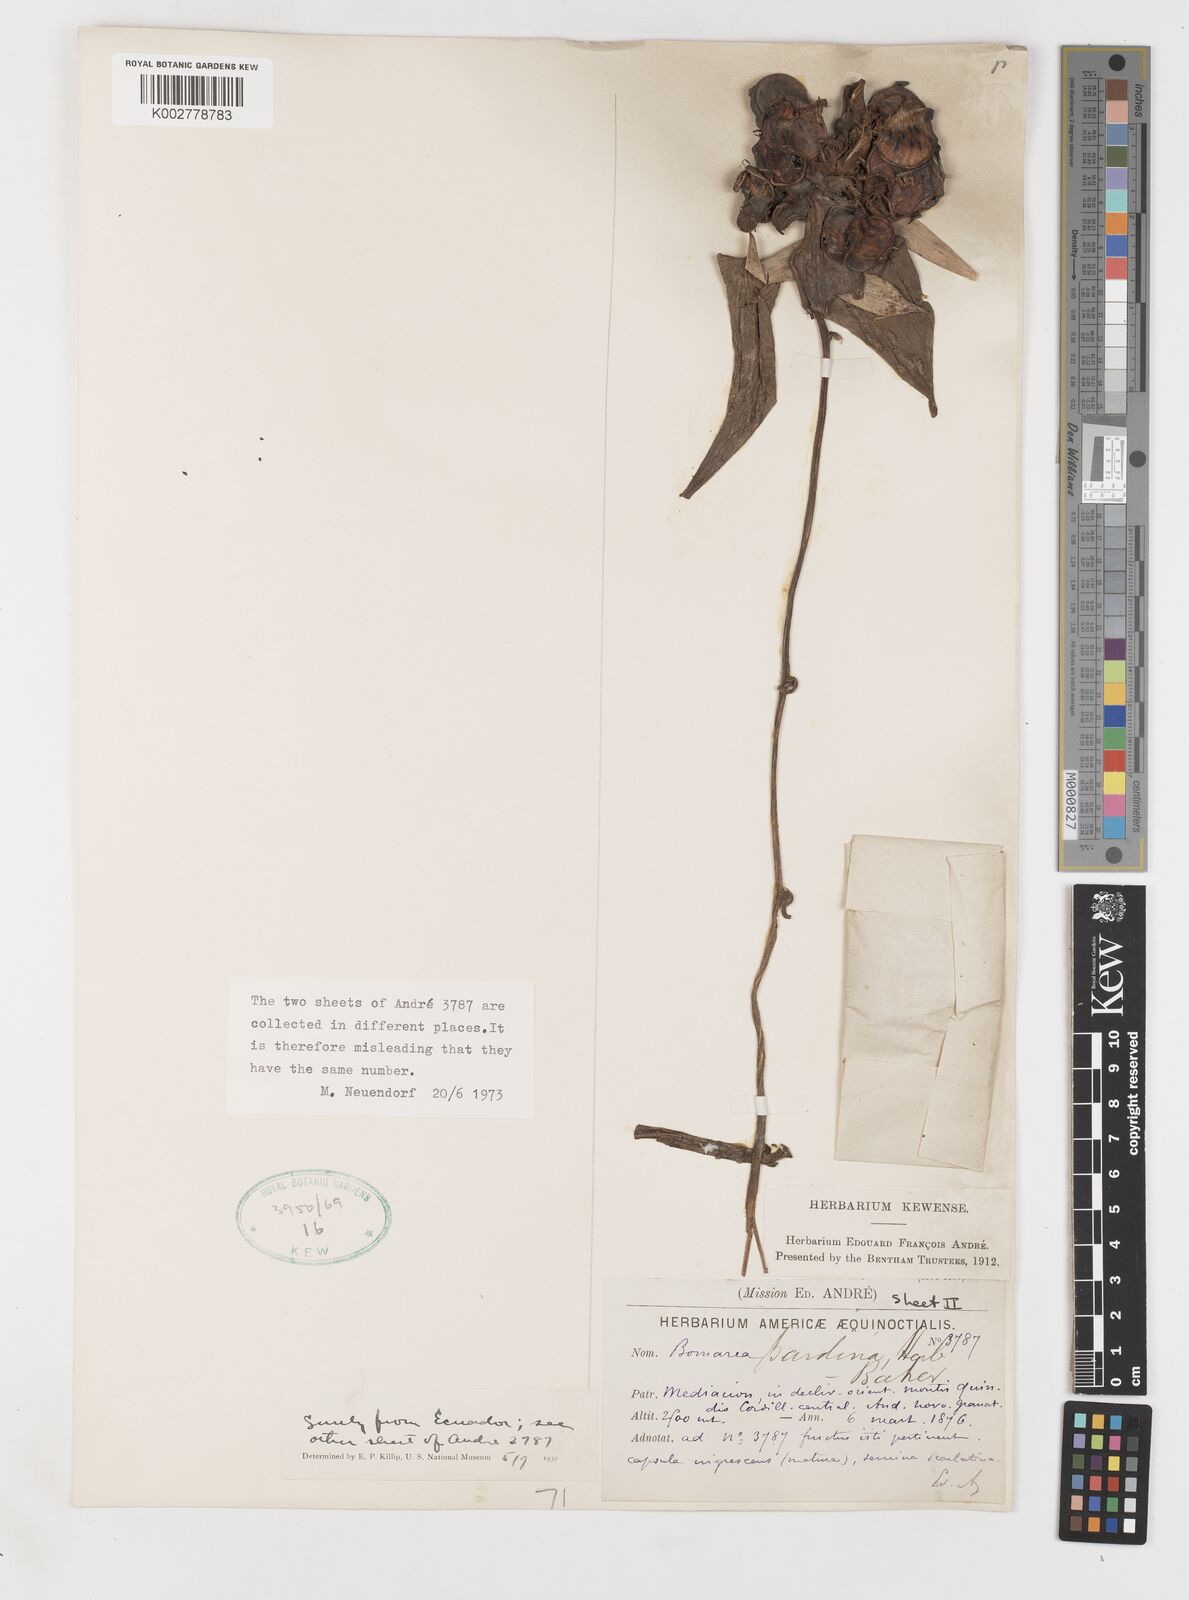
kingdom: Plantae
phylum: Tracheophyta
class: Liliopsida
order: Liliales
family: Alstroemeriaceae
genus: Bomarea
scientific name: Bomarea pardina
